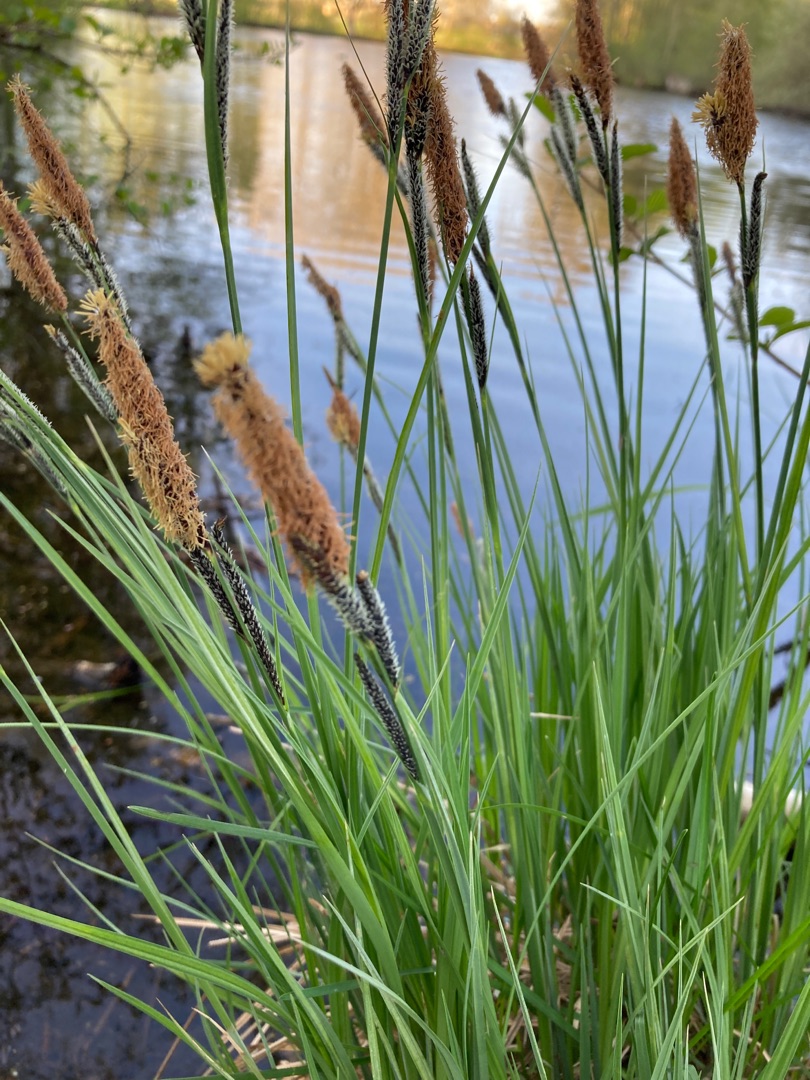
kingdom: Plantae
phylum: Tracheophyta
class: Liliopsida
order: Poales
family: Cyperaceae
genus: Carex
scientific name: Carex elata
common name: Stiv star
